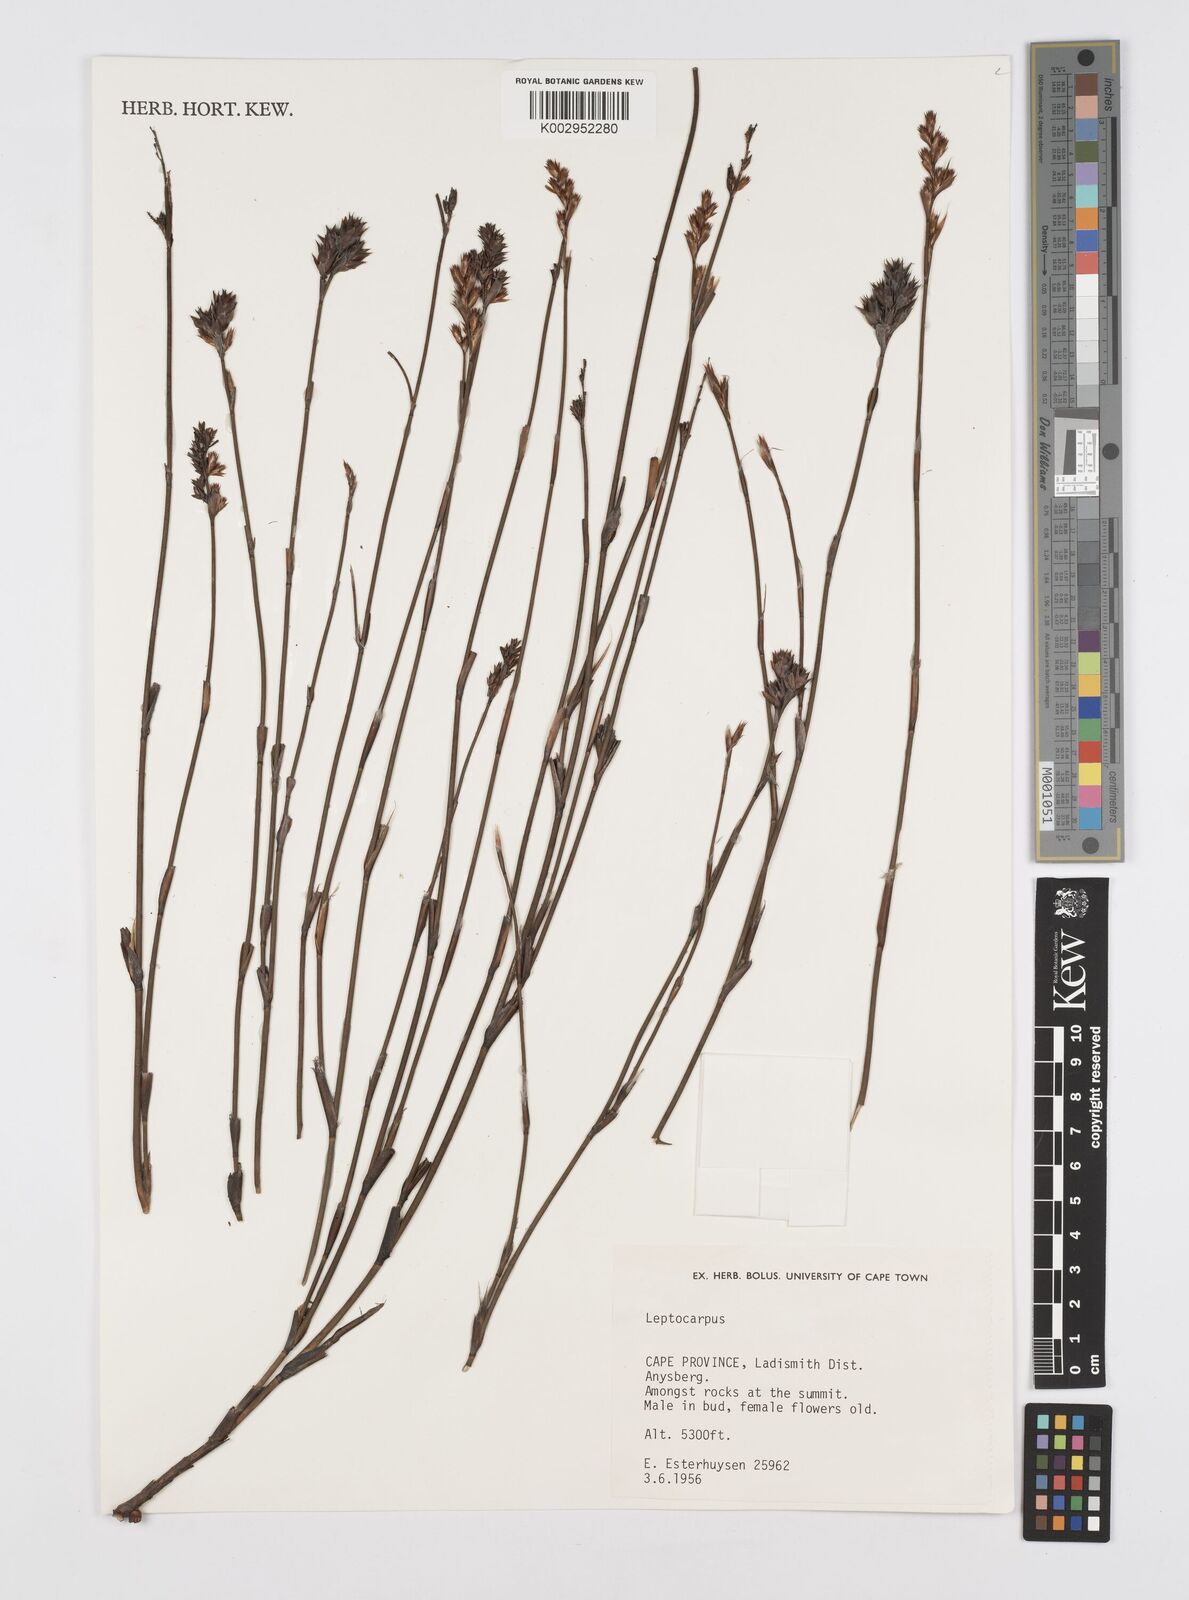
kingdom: Plantae
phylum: Tracheophyta
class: Liliopsida
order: Poales
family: Restionaceae
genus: Restio
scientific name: Restio
